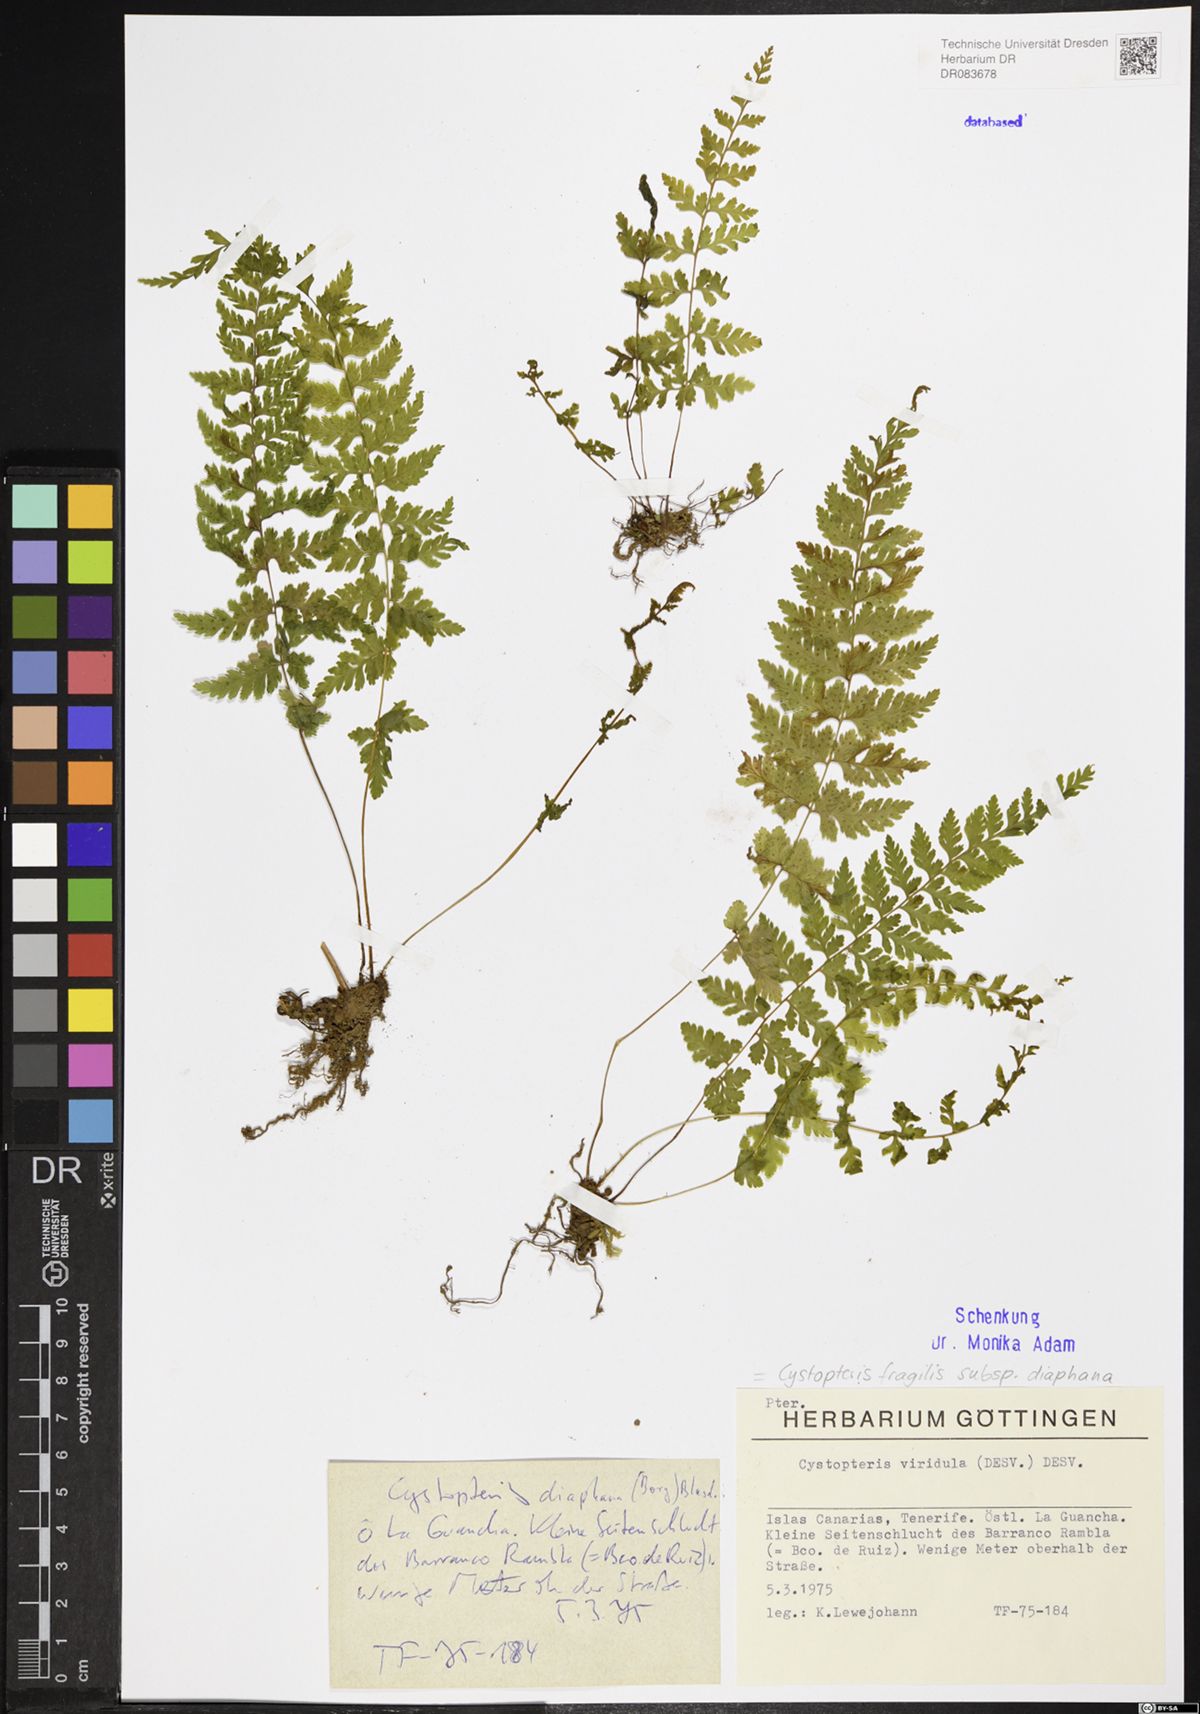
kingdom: Plantae
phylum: Tracheophyta
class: Polypodiopsida
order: Polypodiales
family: Cystopteridaceae
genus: Cystopteris
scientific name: Cystopteris diaphana
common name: Greenish bladder-fern
